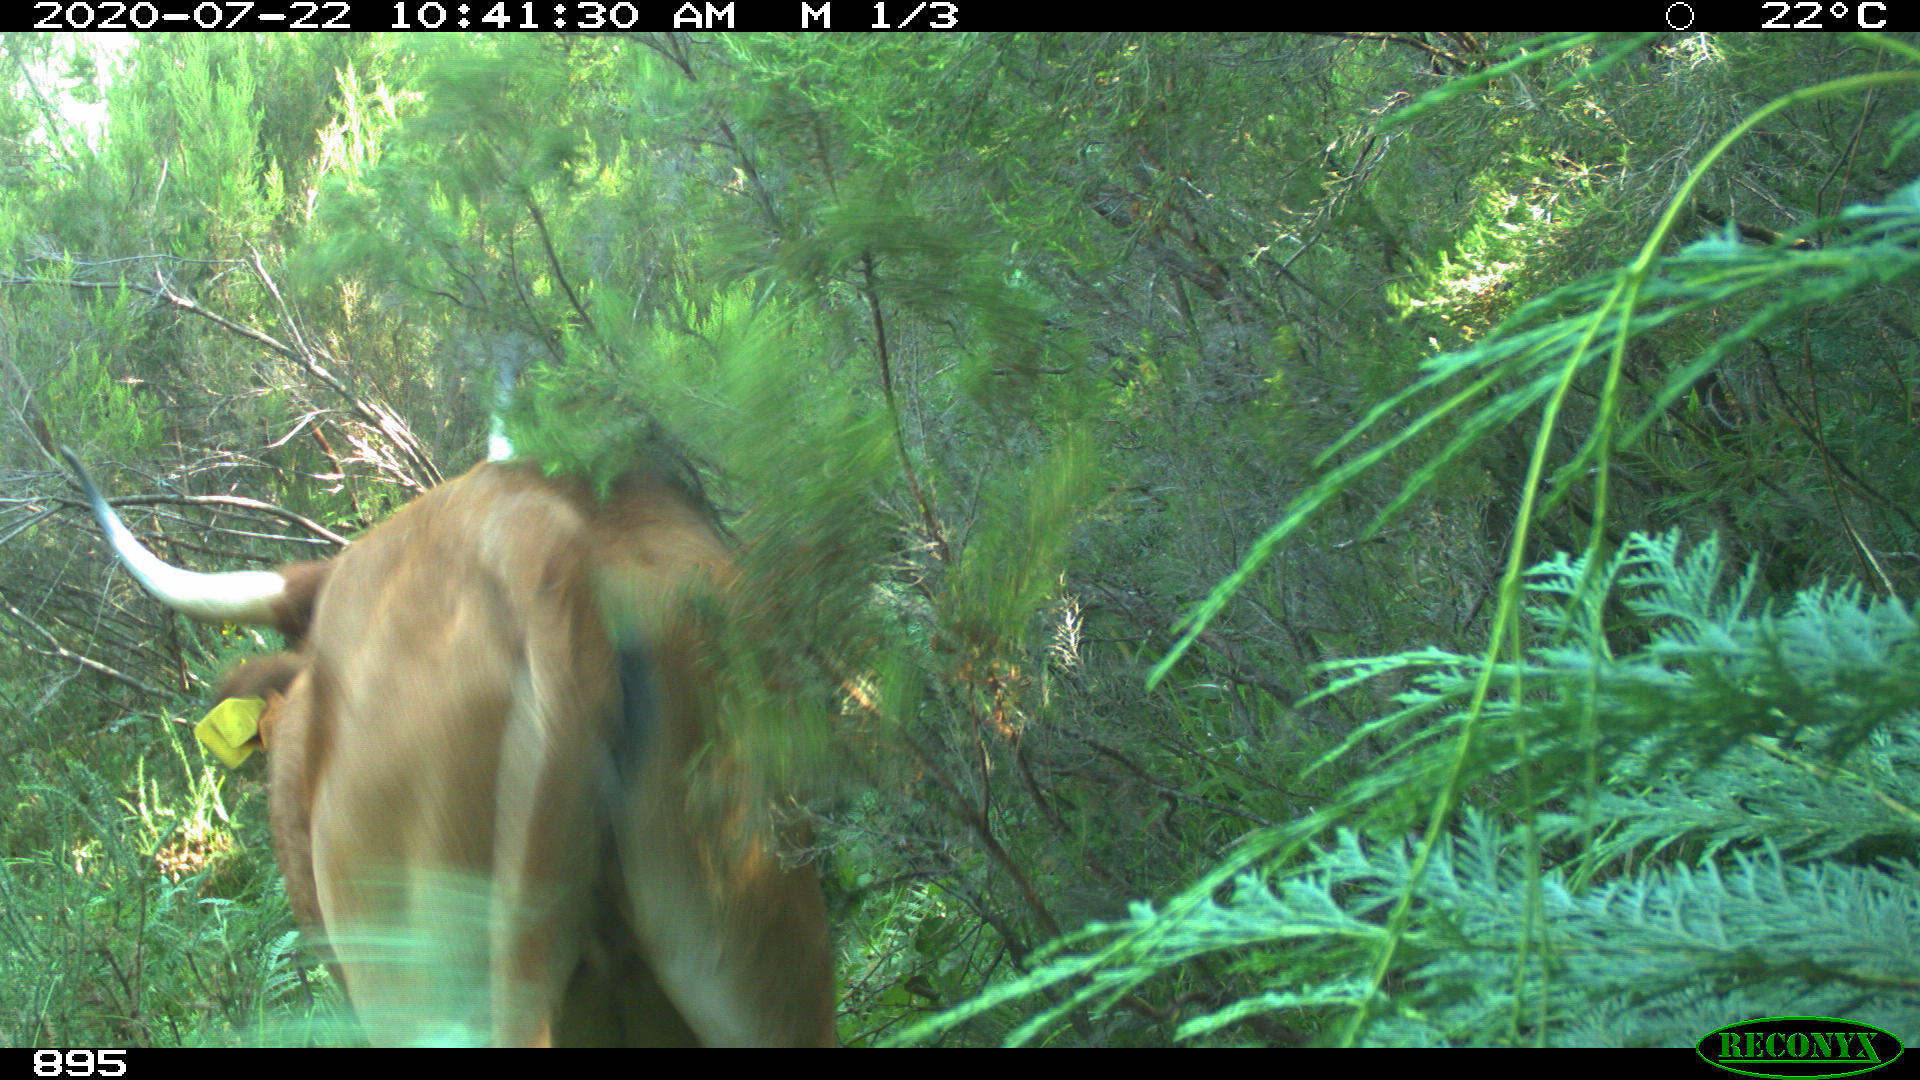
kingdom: Animalia
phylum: Chordata
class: Mammalia
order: Artiodactyla
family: Bovidae
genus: Bos
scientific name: Bos taurus
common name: Domesticated cattle
